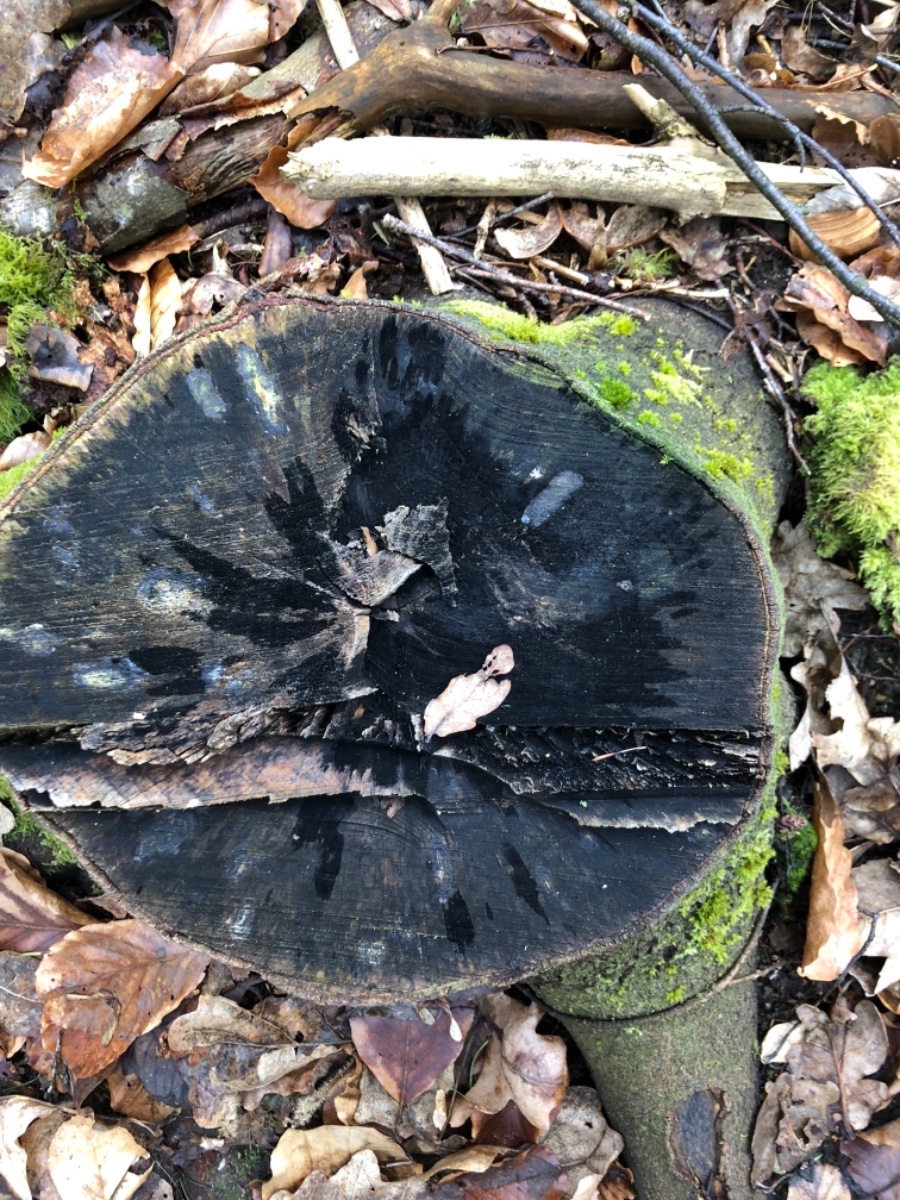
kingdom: Fungi
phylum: Ascomycota
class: Leotiomycetes
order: Helotiales
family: Helotiaceae
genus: Bispora
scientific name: Bispora pallescens
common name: måtte-snitskive
